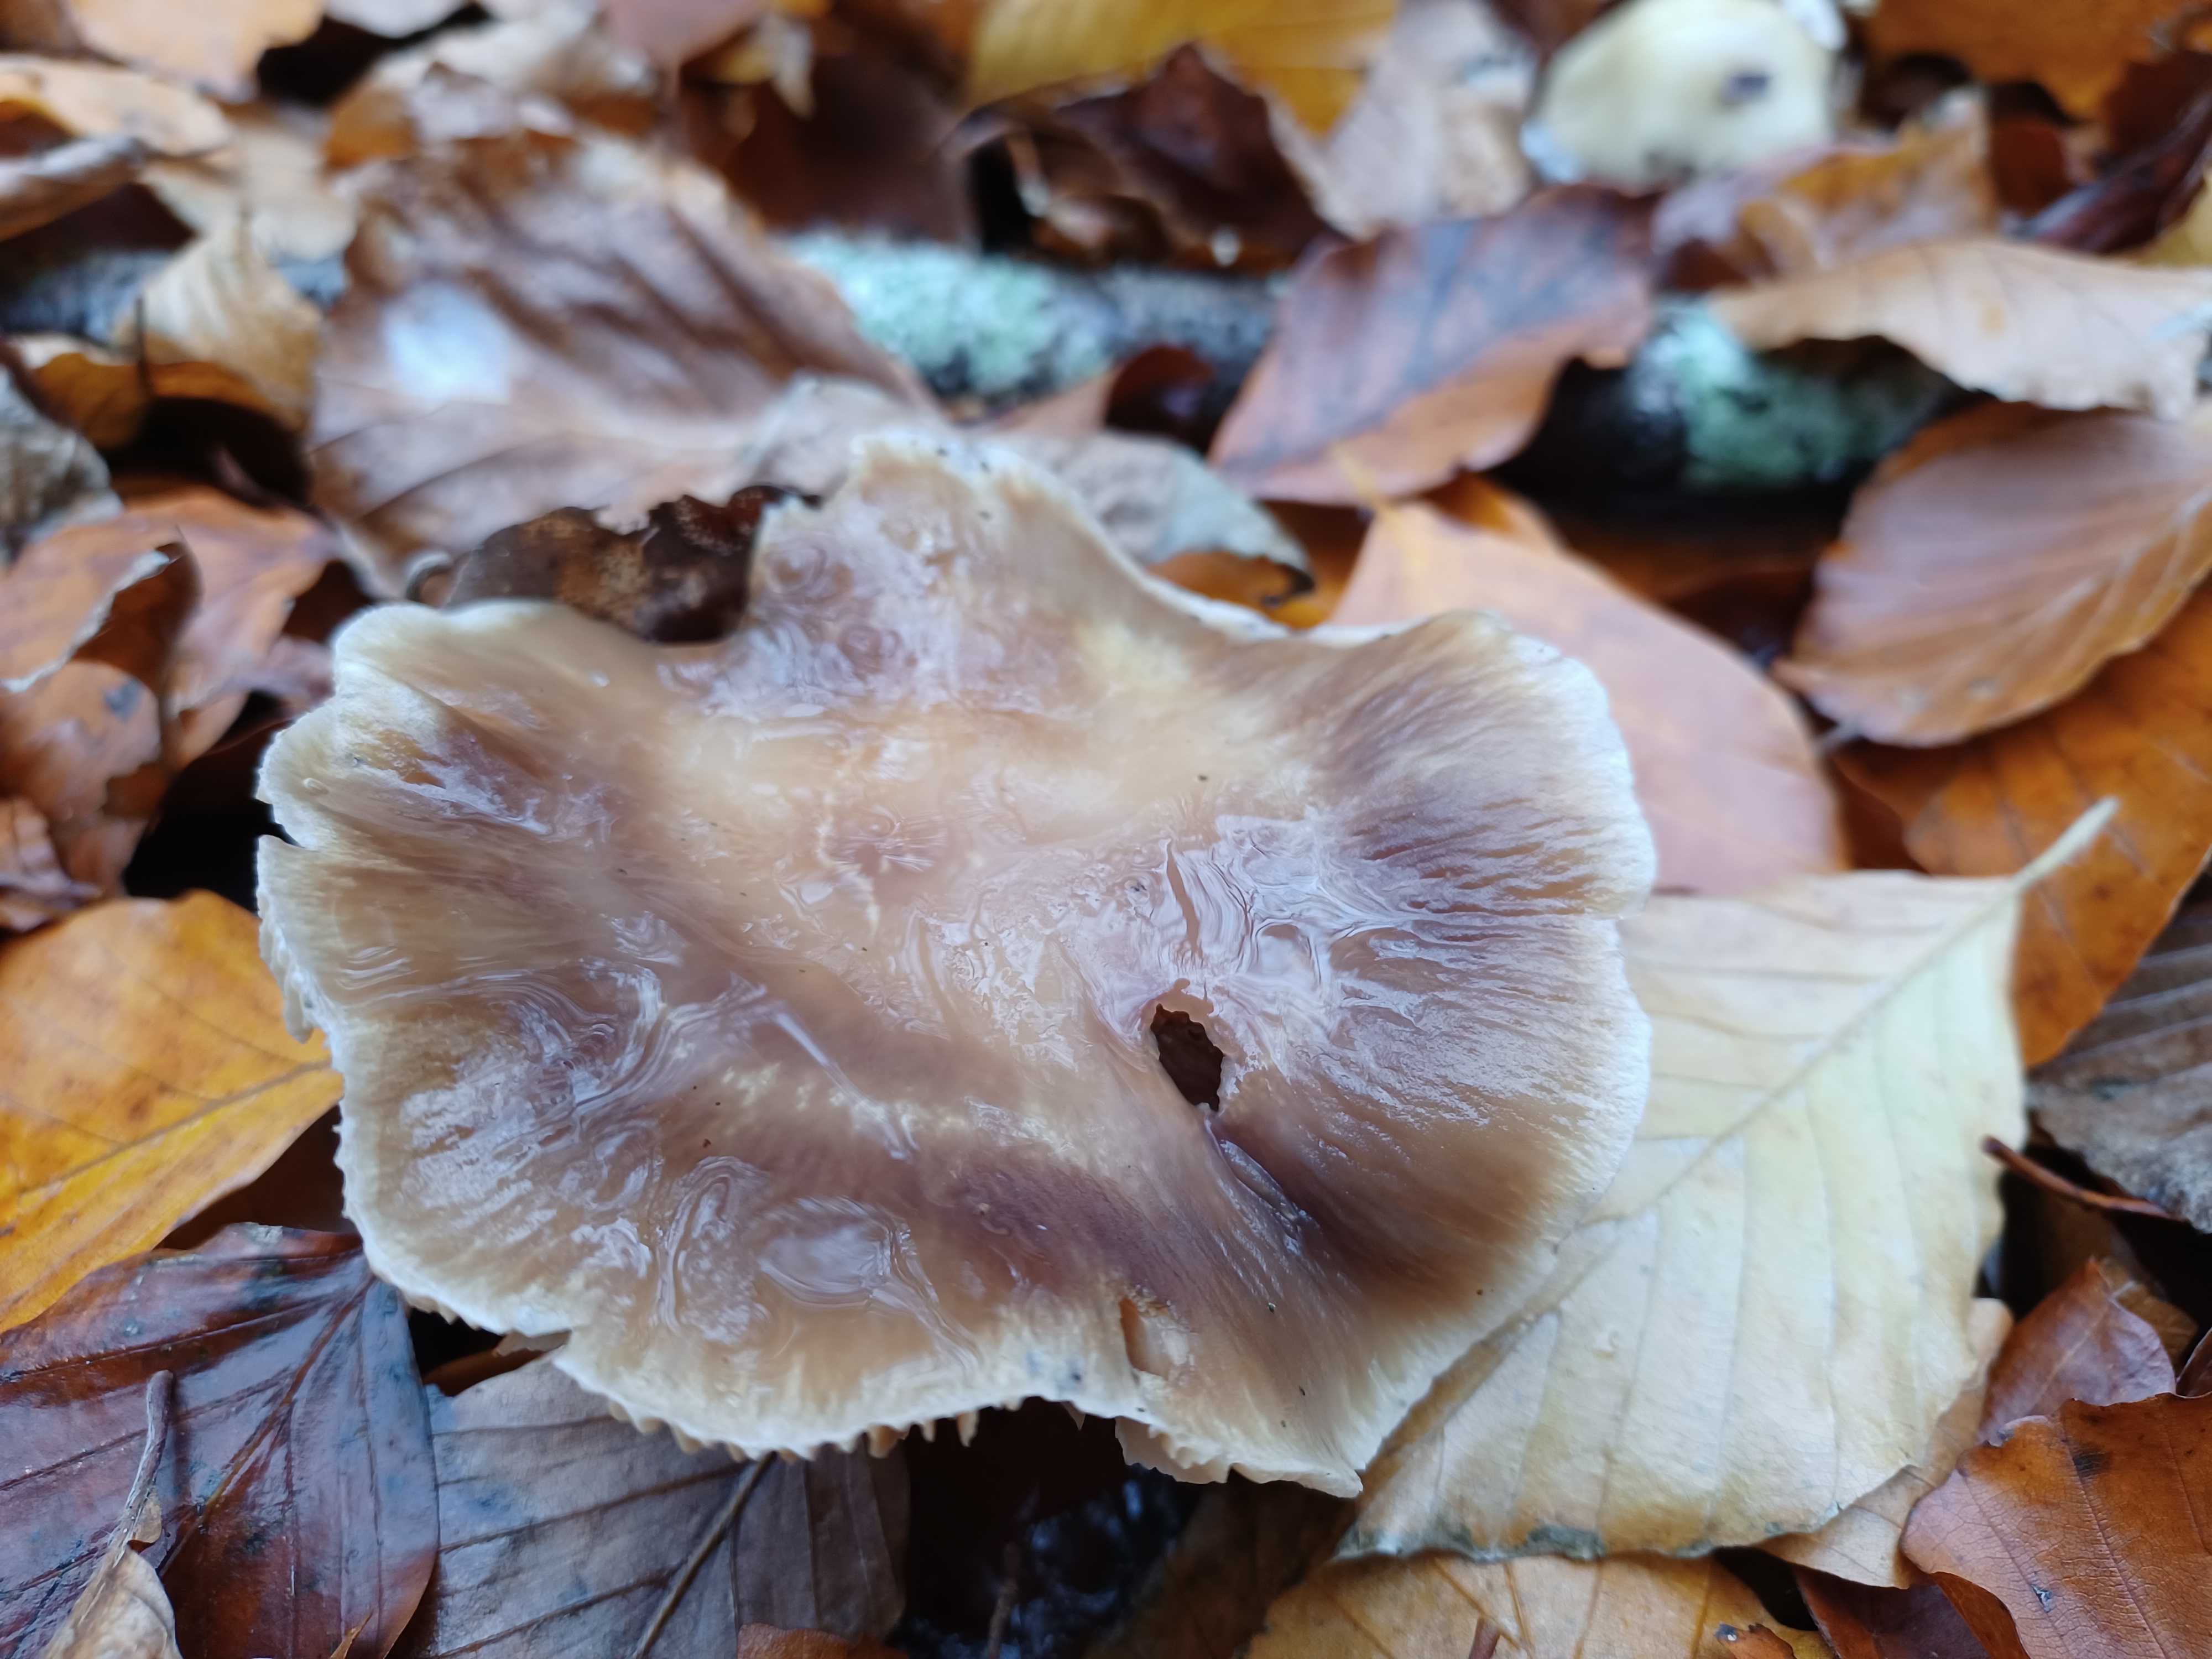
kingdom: Fungi
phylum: Basidiomycota
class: Agaricomycetes
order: Agaricales
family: Cortinariaceae
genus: Cortinarius
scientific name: Cortinarius elatior
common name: høj slørhat
